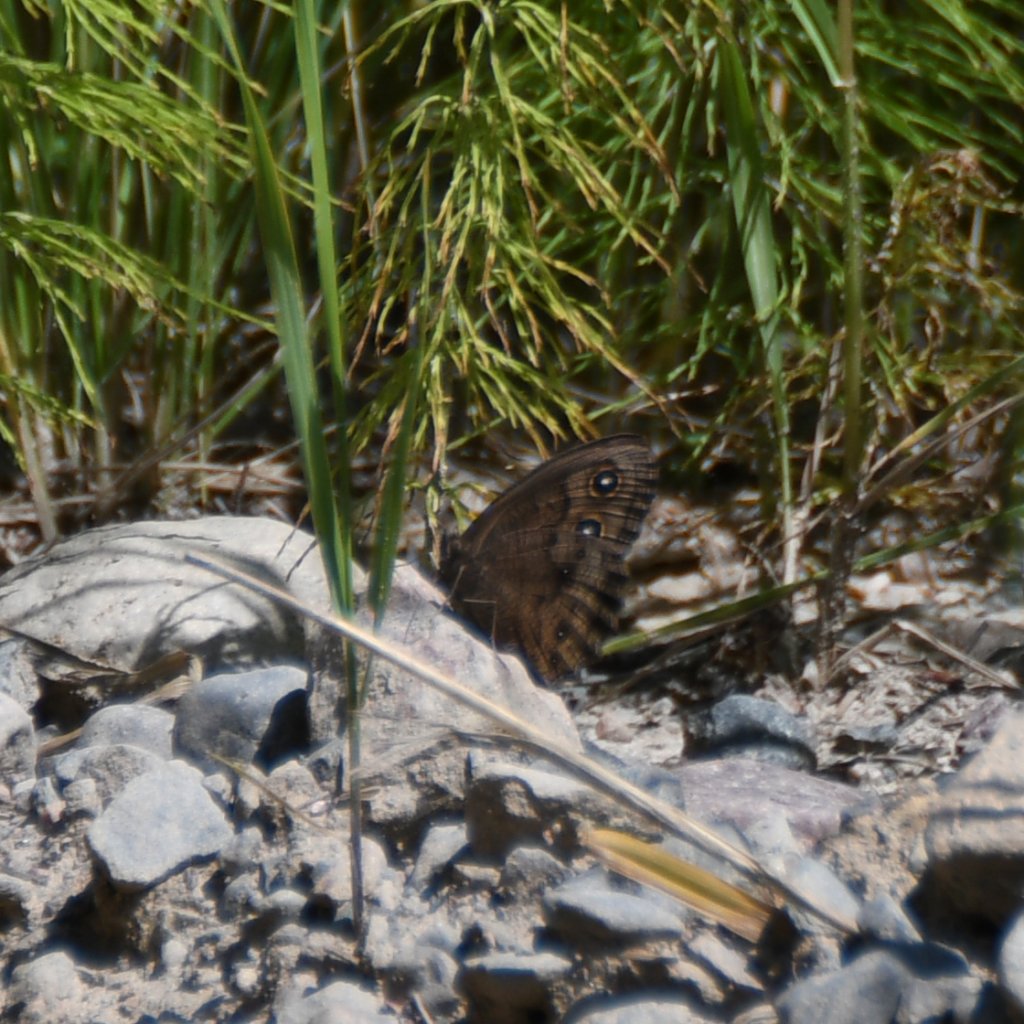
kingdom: Animalia
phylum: Arthropoda
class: Insecta
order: Lepidoptera
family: Nymphalidae
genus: Cercyonis
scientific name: Cercyonis pegala
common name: Common Wood-Nymph
